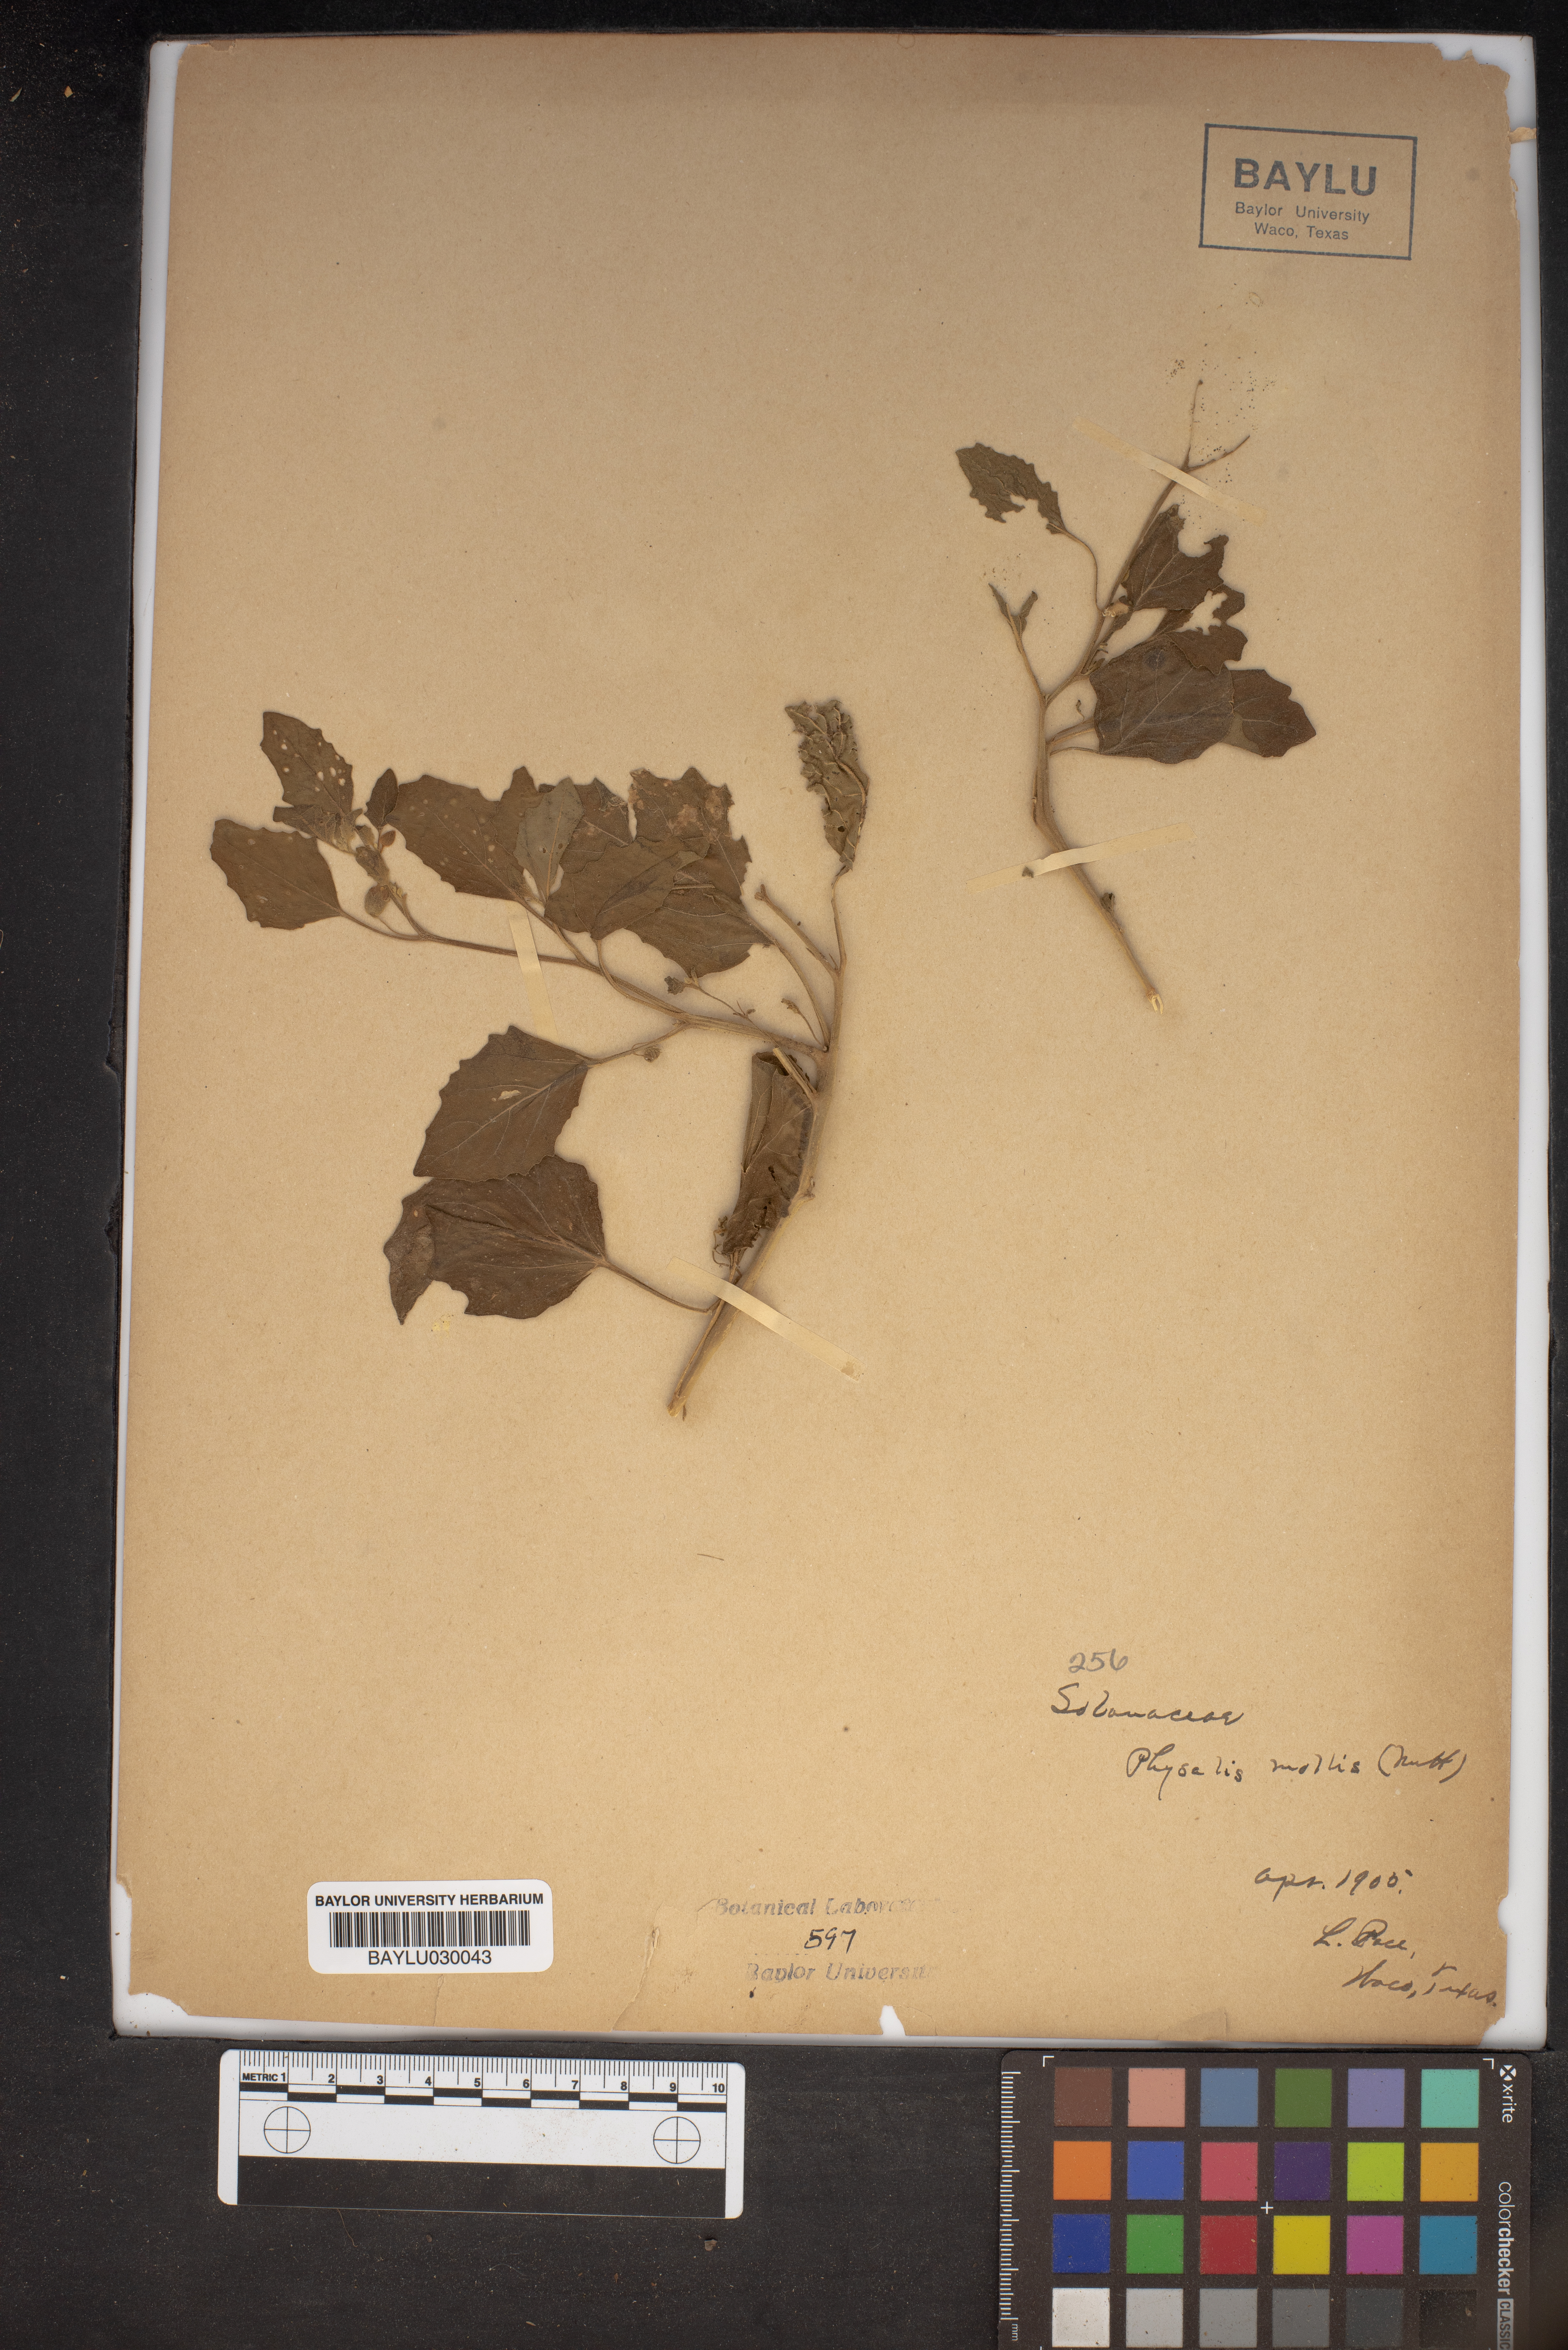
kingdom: Plantae
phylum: Tracheophyta
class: Magnoliopsida
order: Solanales
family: Solanaceae
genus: Physalis
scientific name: Physalis mollis
